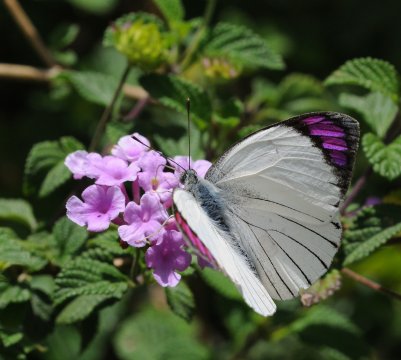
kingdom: Animalia
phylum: Arthropoda
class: Insecta
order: Lepidoptera
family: Pieridae
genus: Colotis
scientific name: Colotis ione
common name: Bushveld Purple Tip
